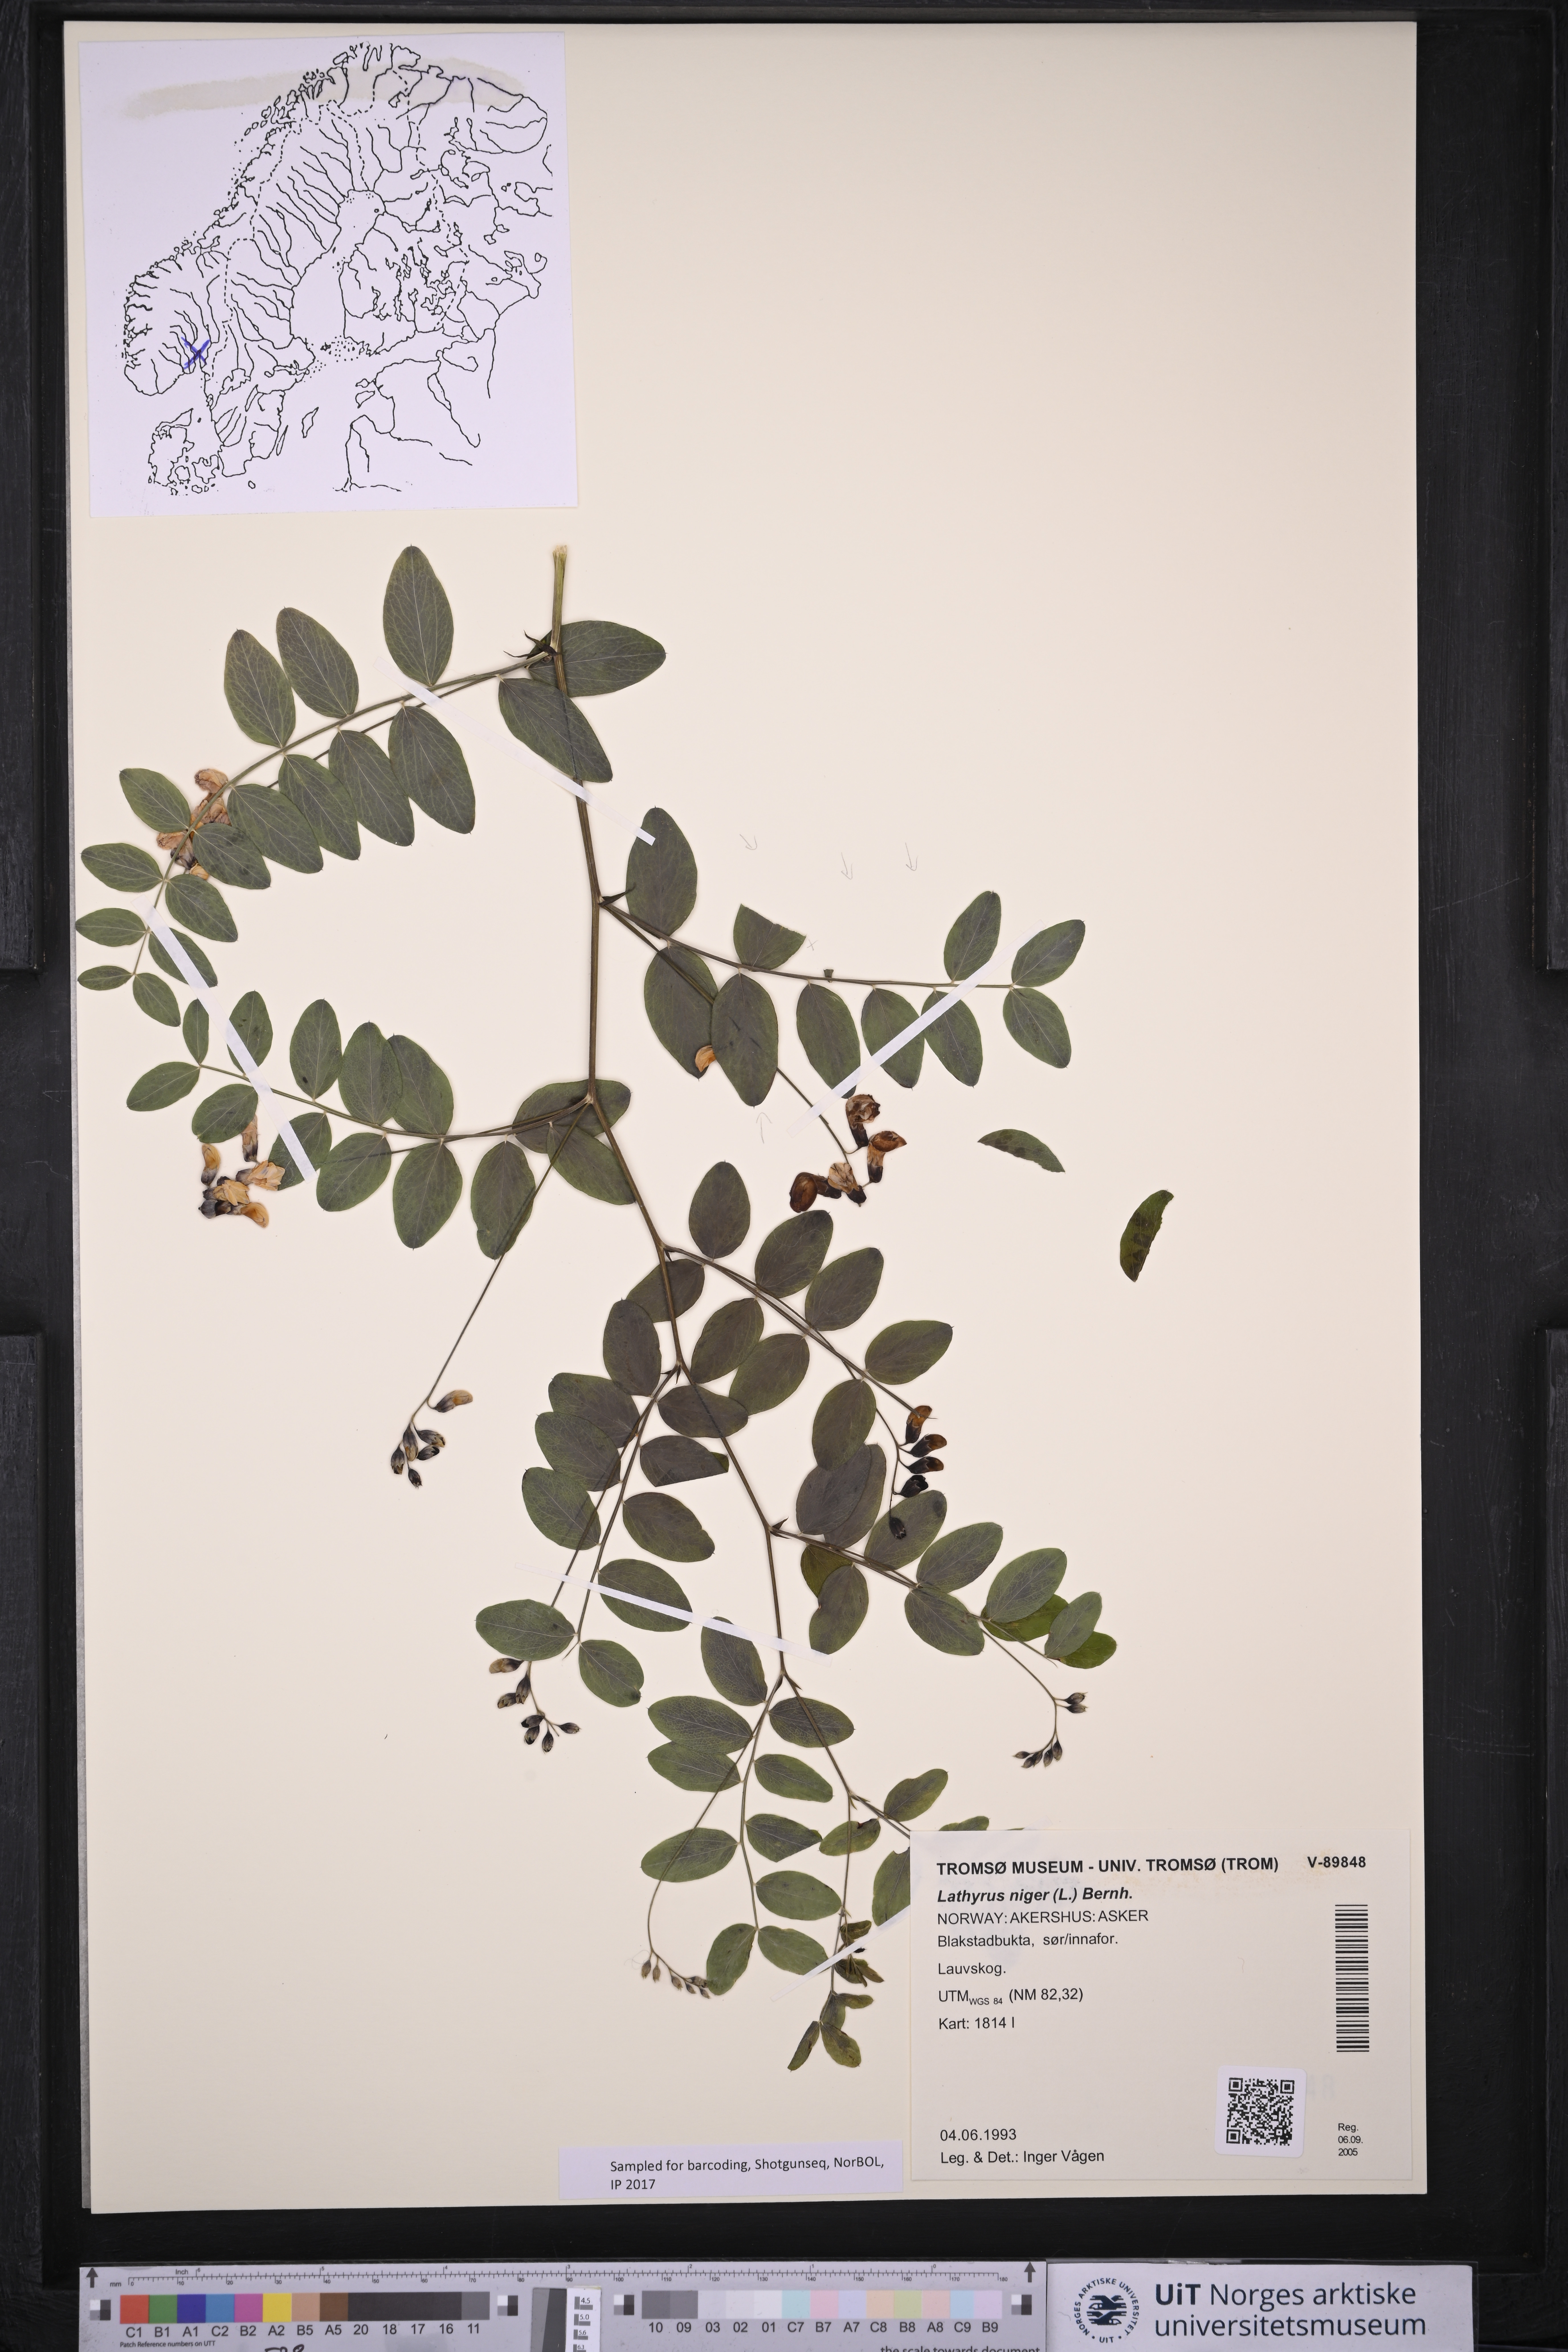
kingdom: Plantae
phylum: Tracheophyta
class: Magnoliopsida
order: Fabales
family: Fabaceae
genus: Lathyrus
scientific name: Lathyrus niger
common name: Black pea
